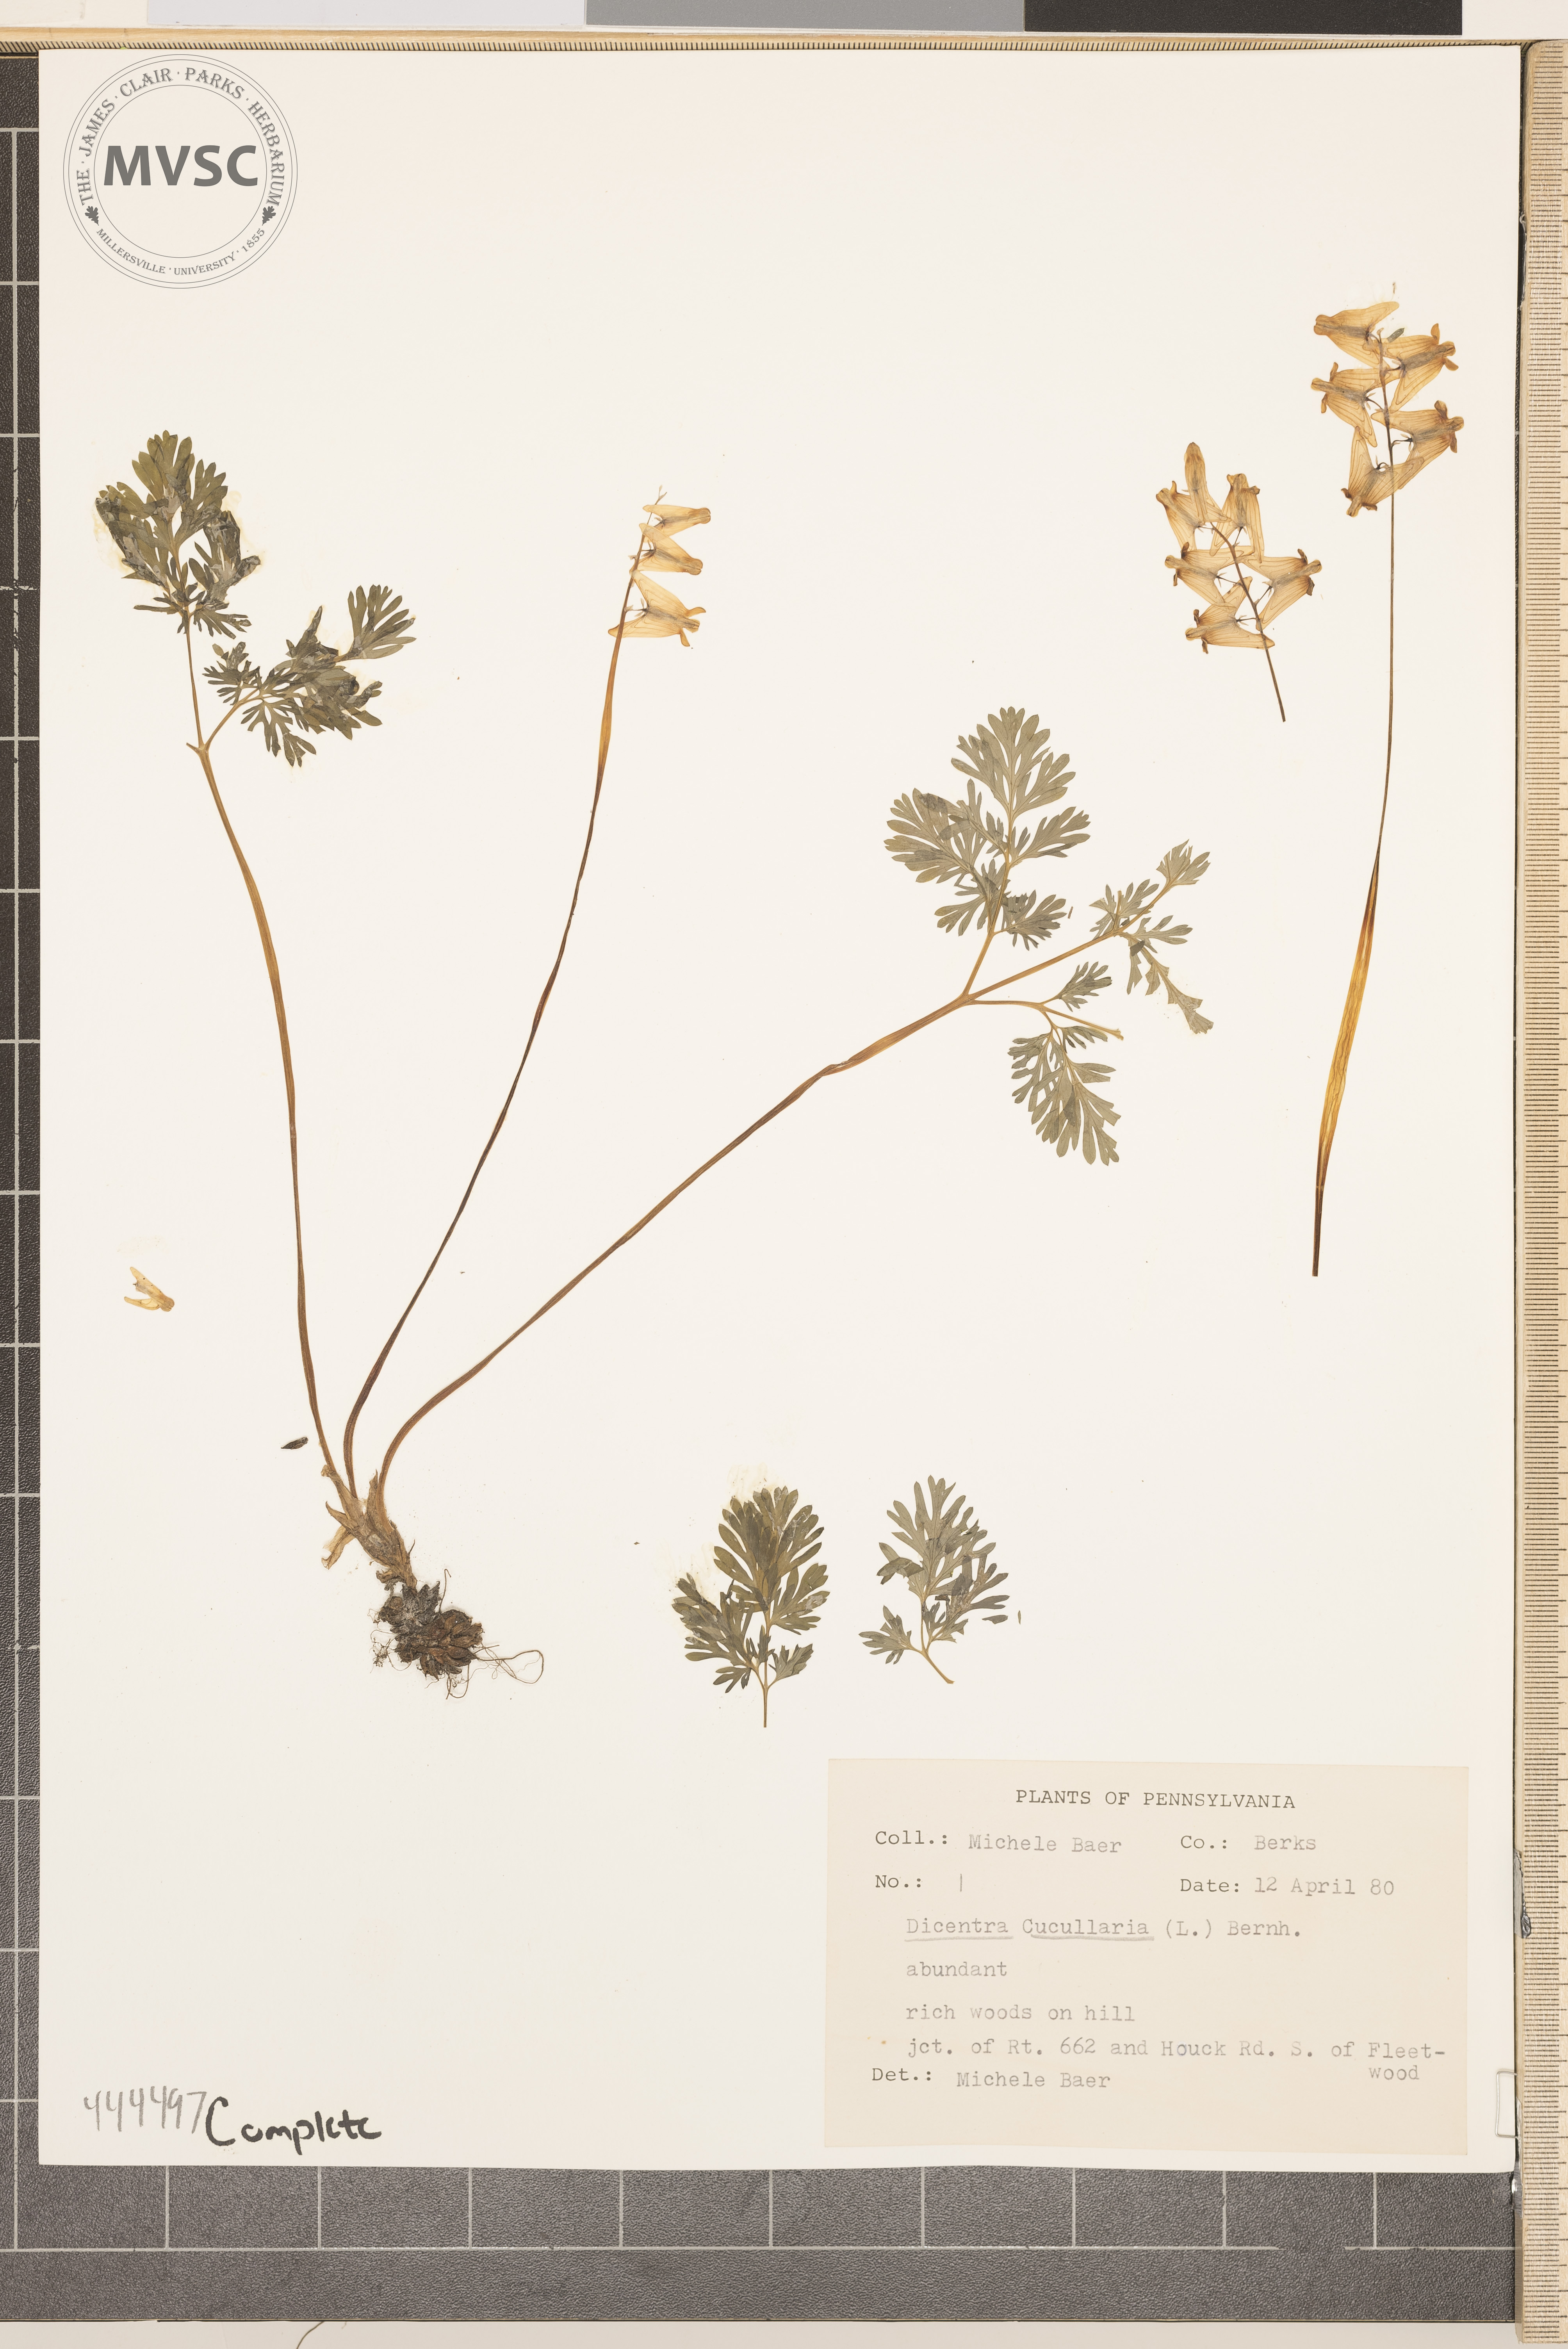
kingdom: Plantae
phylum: Tracheophyta
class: Magnoliopsida
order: Ranunculales
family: Papaveraceae
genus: Dicentra
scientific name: Dicentra cucullaria
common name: Dutchman's breeches
